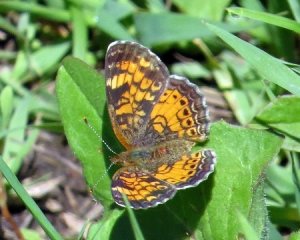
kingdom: Animalia
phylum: Arthropoda
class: Insecta
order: Lepidoptera
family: Nymphalidae
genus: Phyciodes
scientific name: Phyciodes tharos
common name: Northern Crescent
